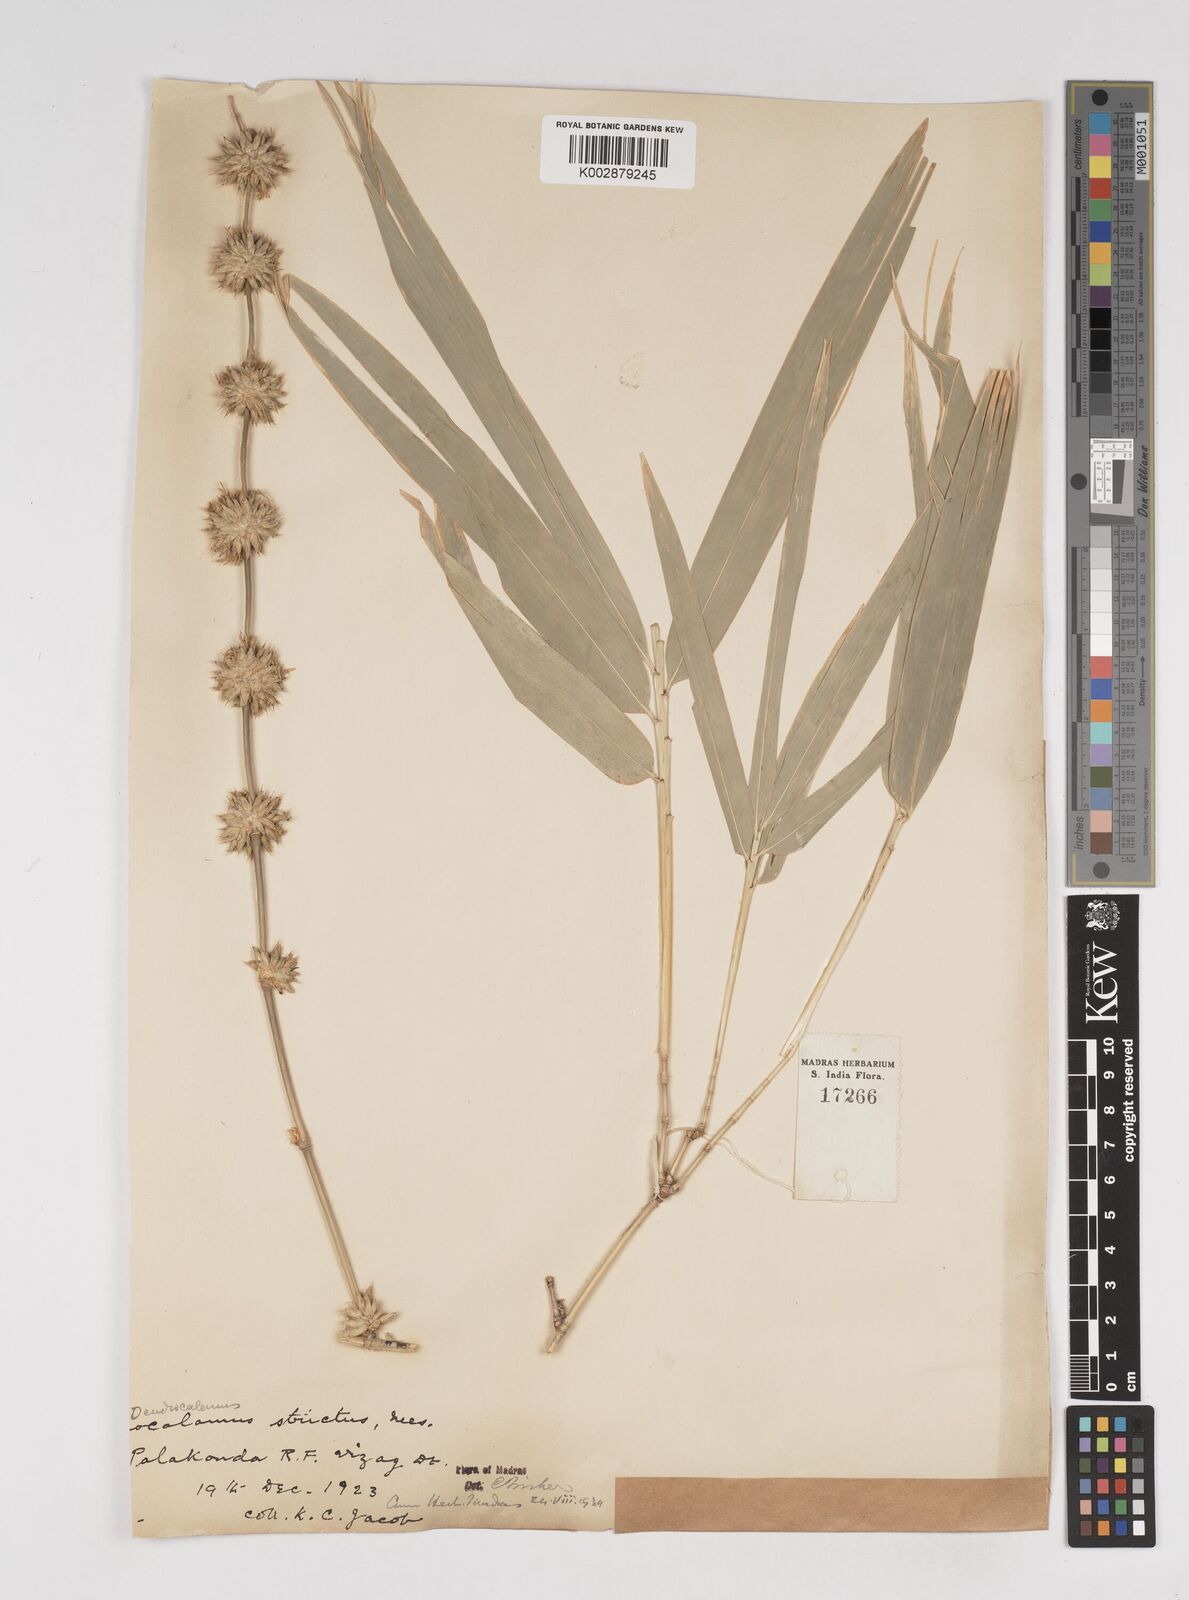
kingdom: Plantae
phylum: Tracheophyta
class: Liliopsida
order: Poales
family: Poaceae
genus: Dendrocalamus
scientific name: Dendrocalamus strictus
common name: Male bamboo
